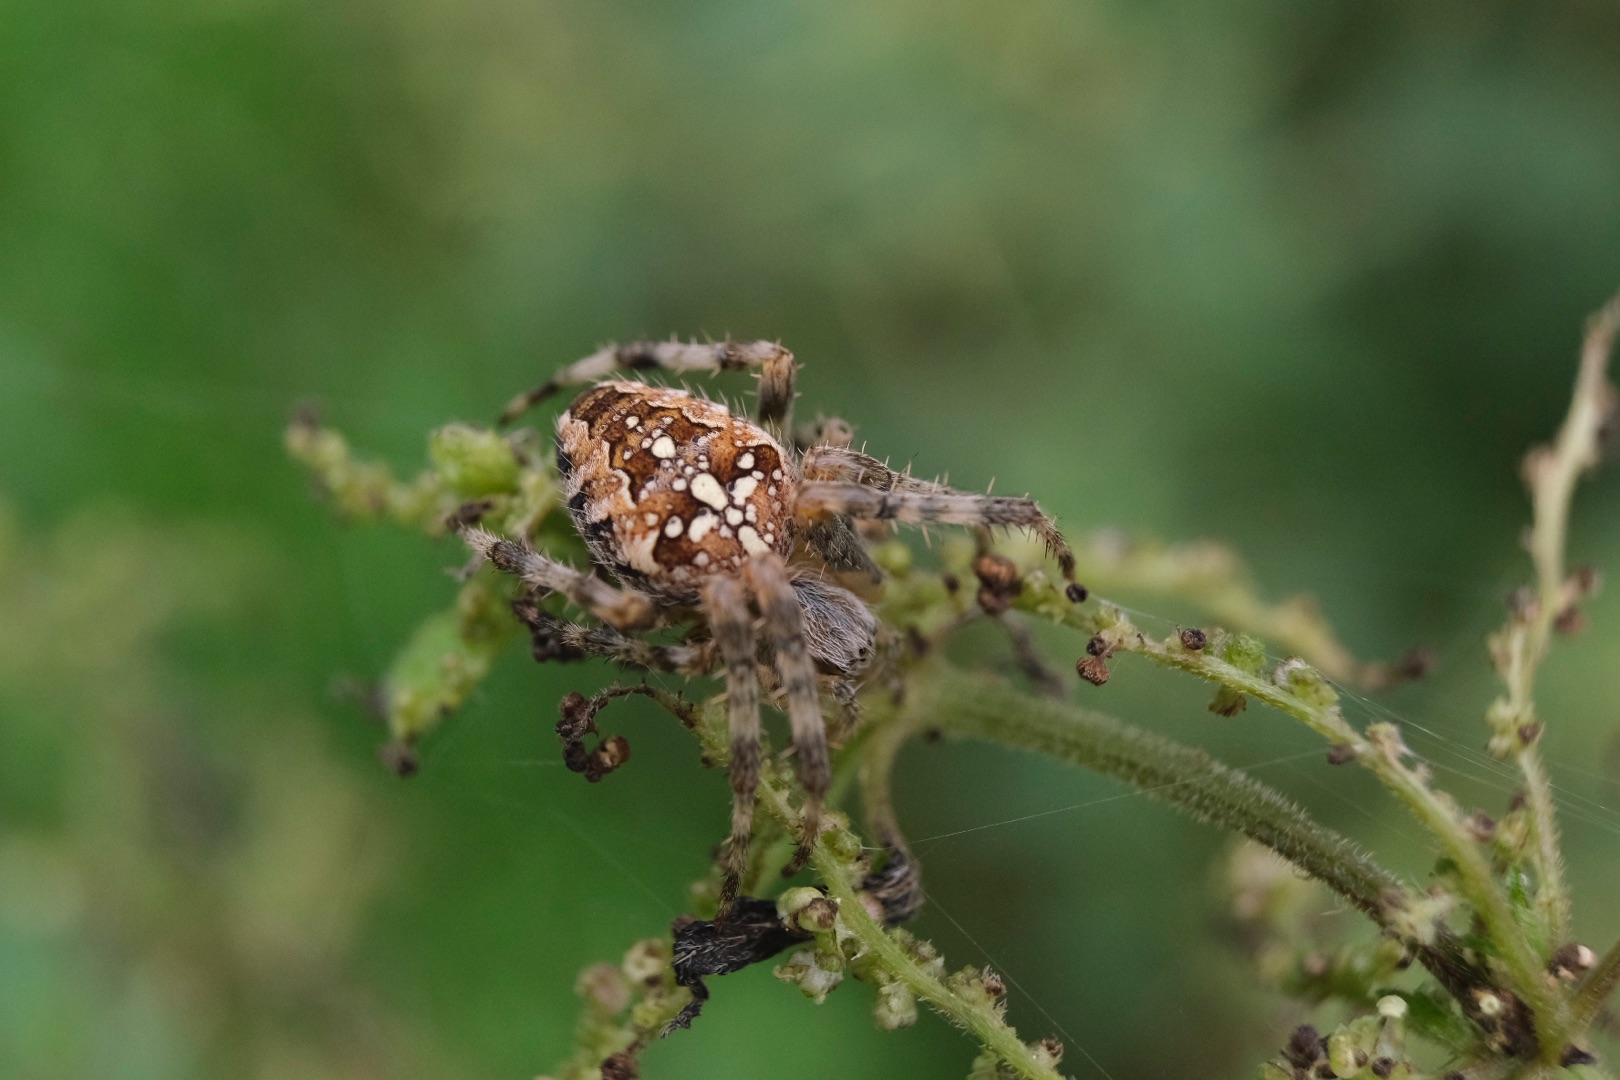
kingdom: Animalia
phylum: Arthropoda
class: Arachnida
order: Araneae
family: Araneidae
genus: Araneus
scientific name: Araneus diadematus
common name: Korsedderkop
